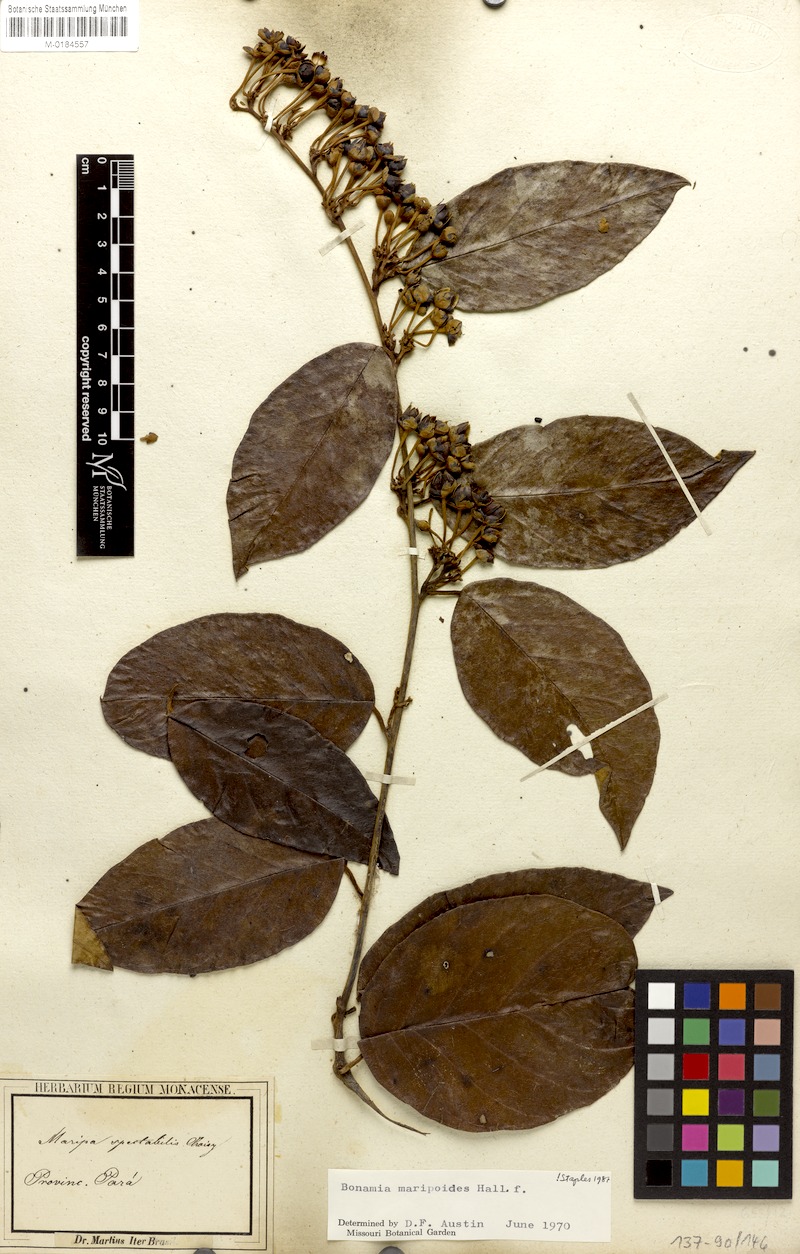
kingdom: Plantae
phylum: Tracheophyta
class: Magnoliopsida
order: Solanales
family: Convolvulaceae
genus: Bonamia
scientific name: Bonamia maripoides
